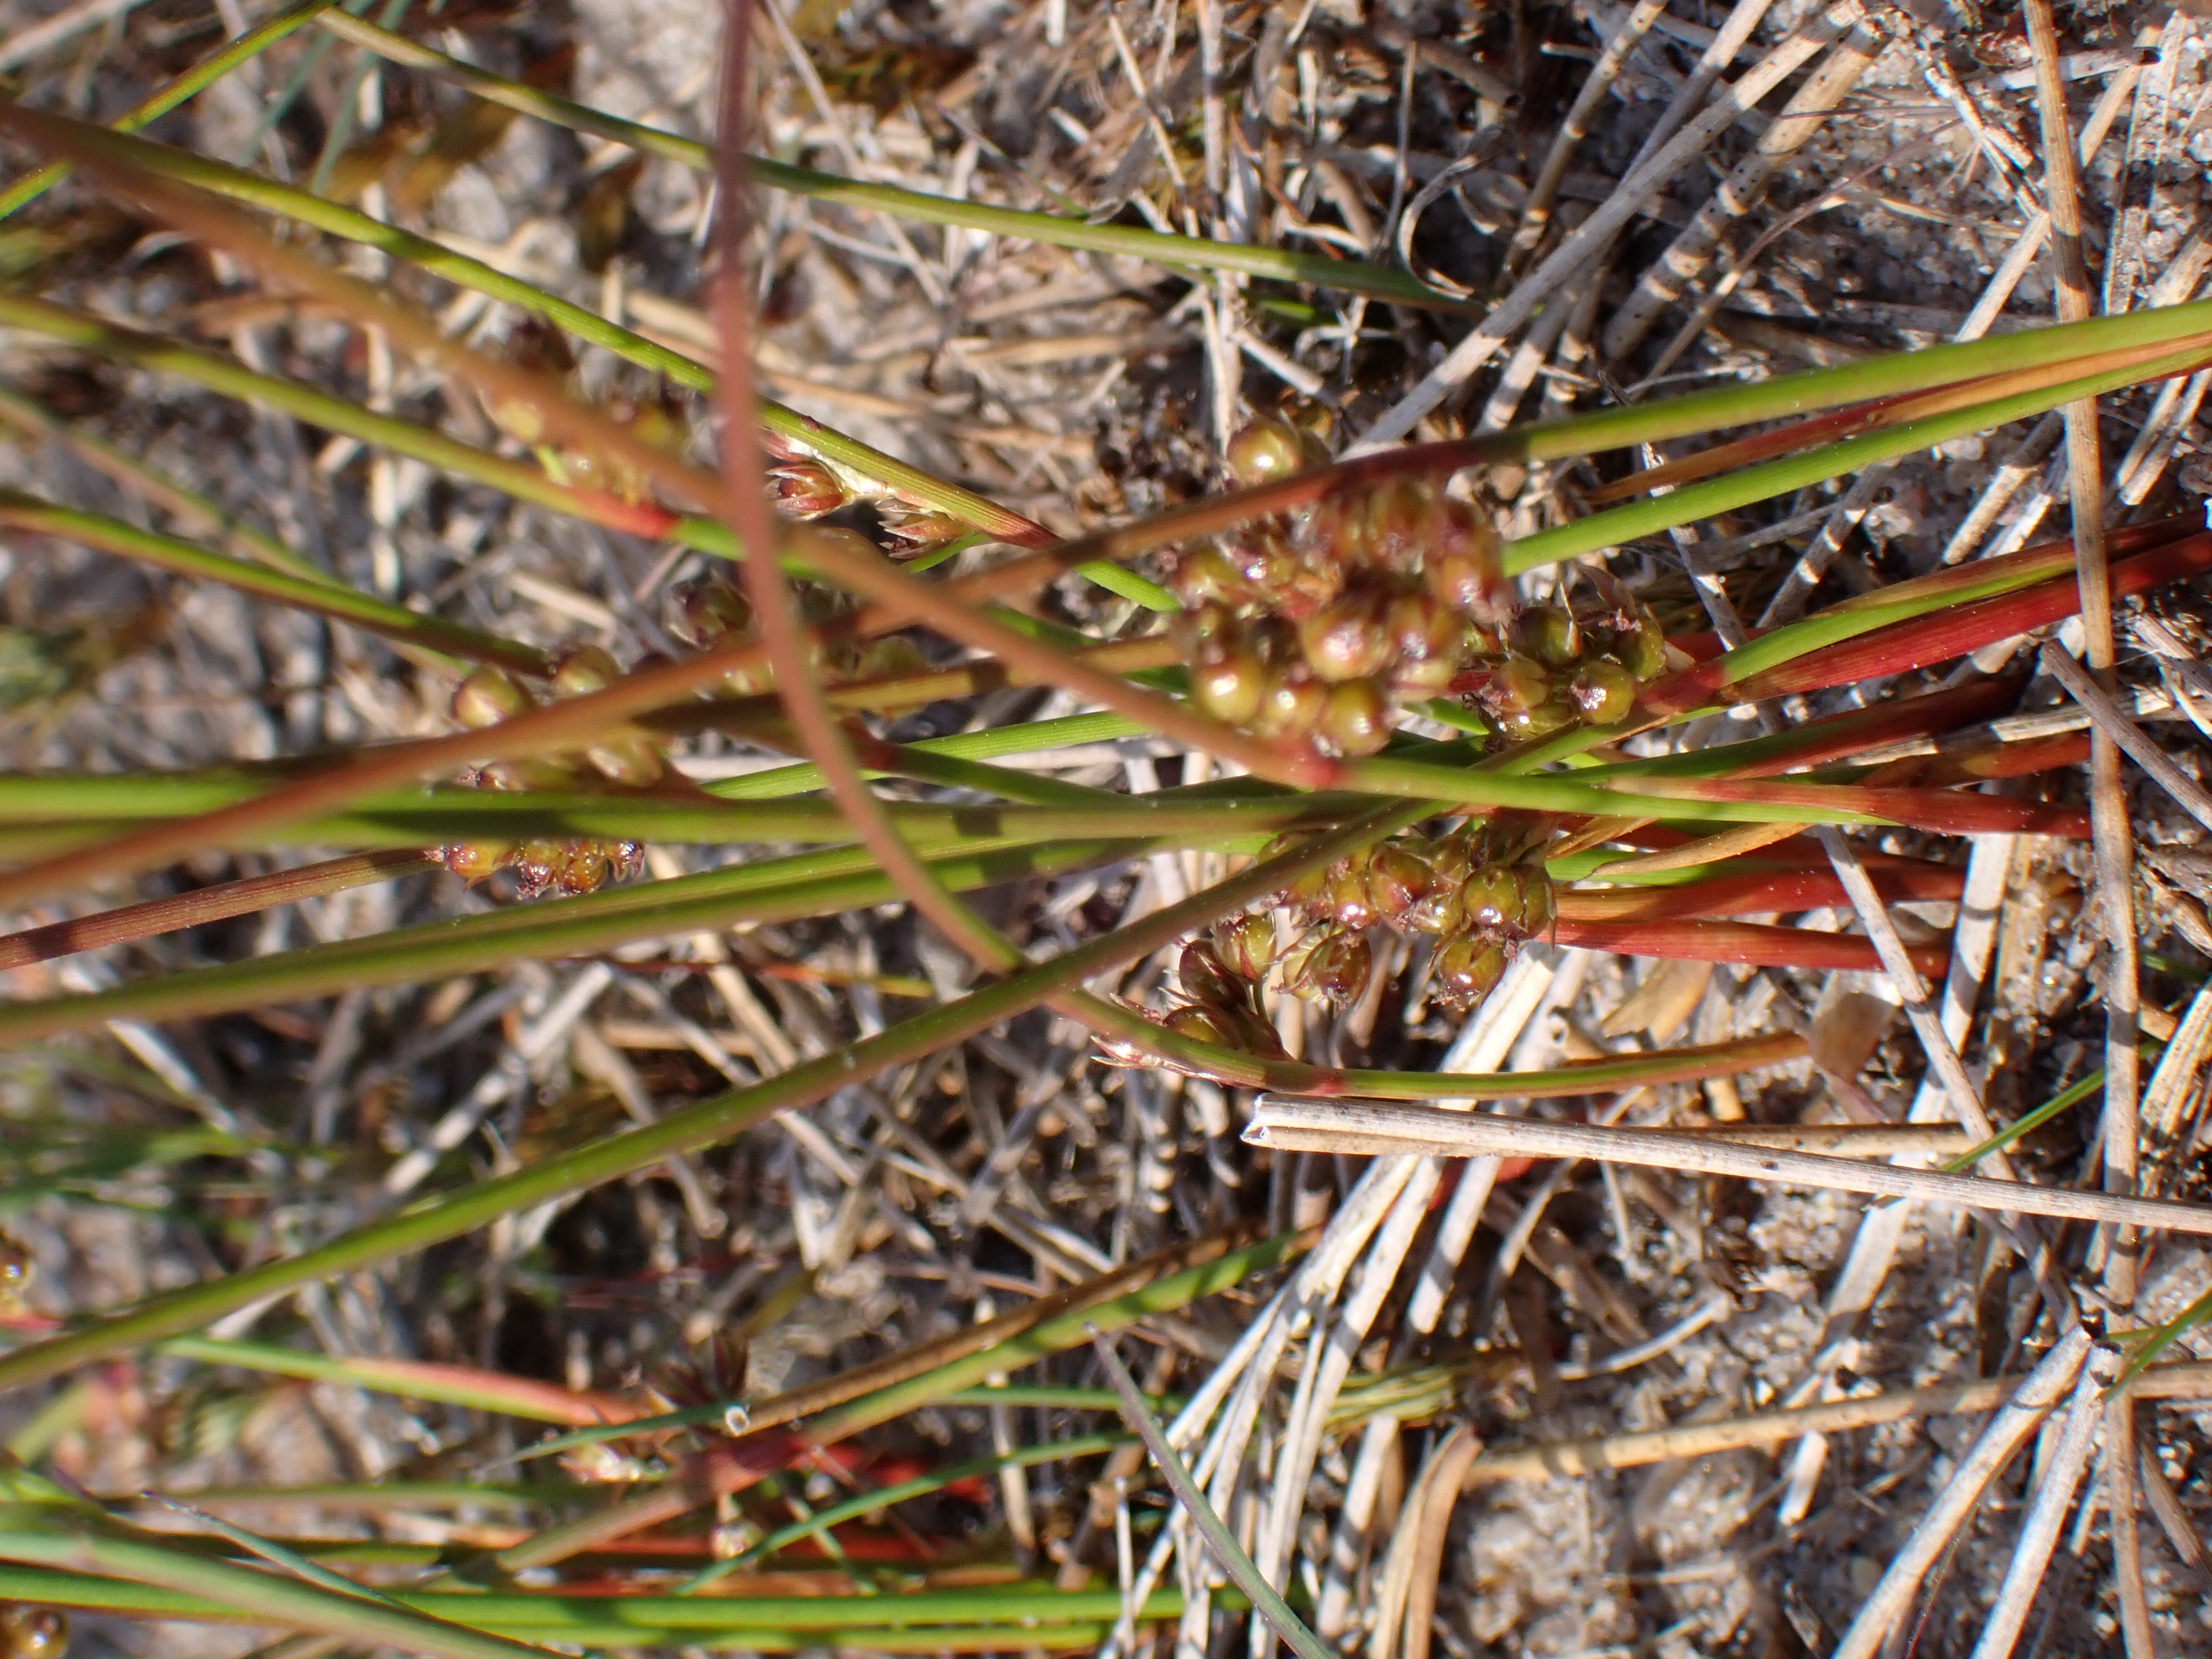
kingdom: Plantae
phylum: Tracheophyta
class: Liliopsida
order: Poales
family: Juncaceae
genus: Juncus
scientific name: Juncus filiformis
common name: Tråd-siv
